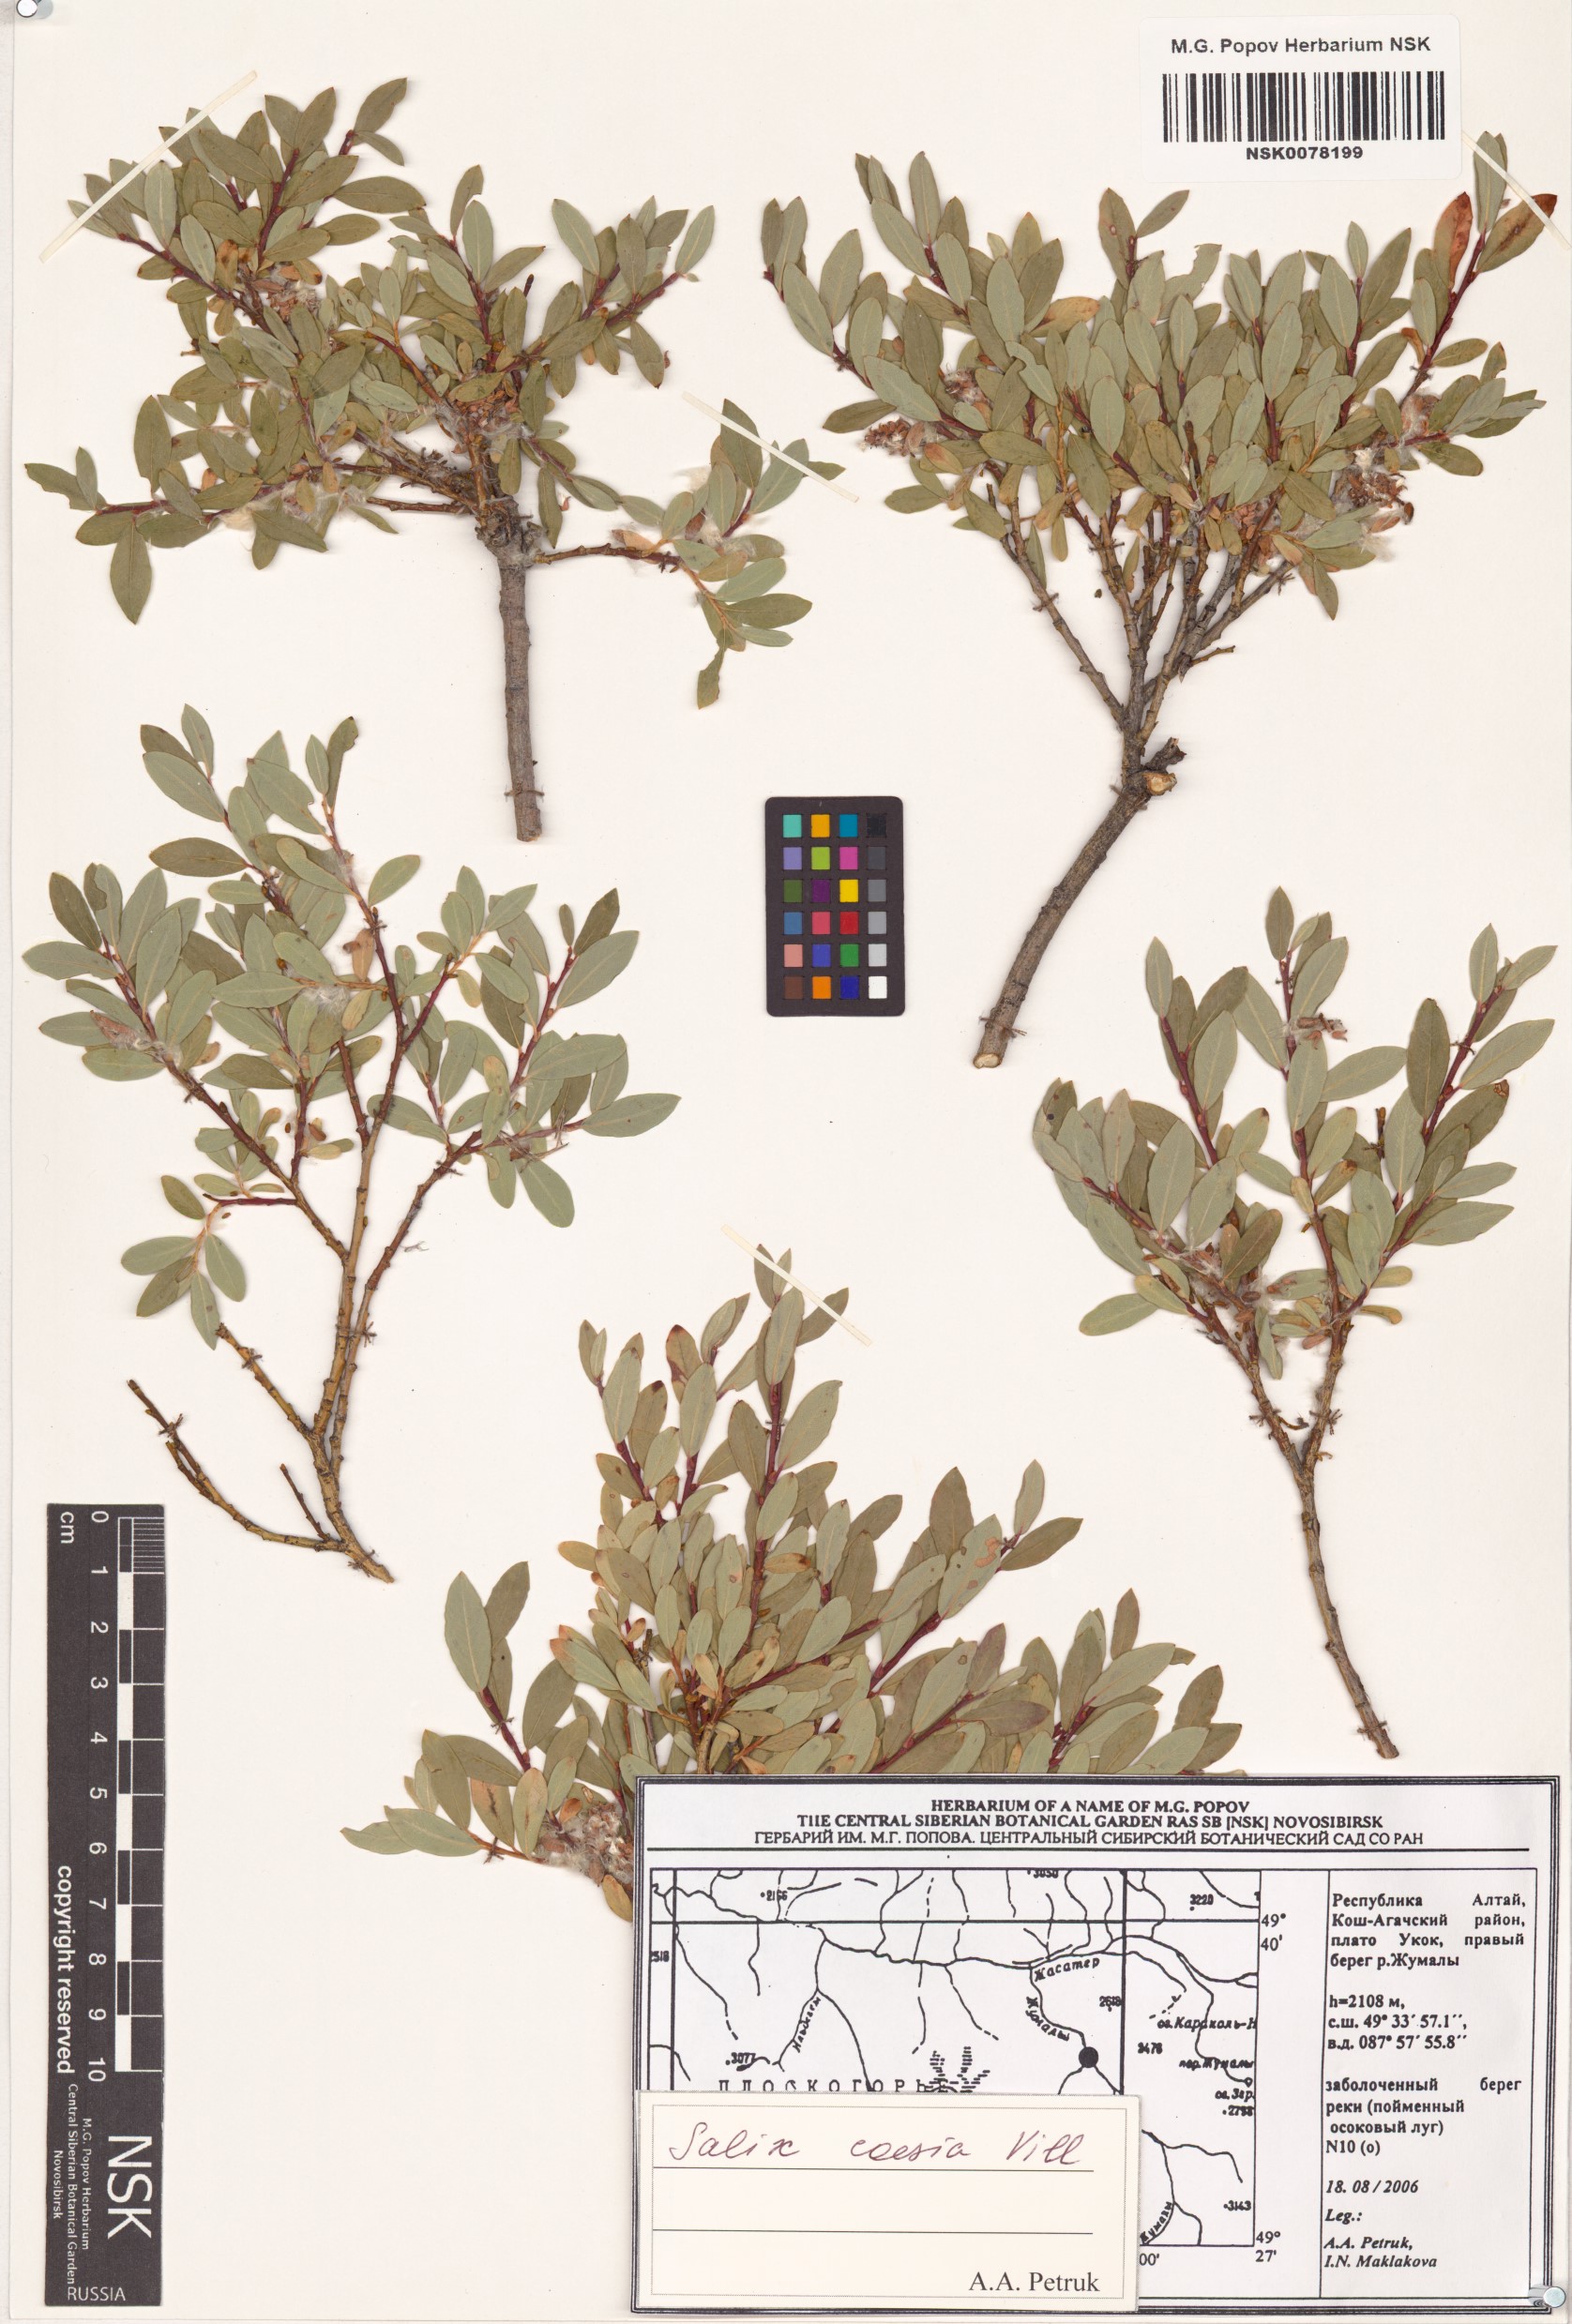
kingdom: Plantae
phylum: Tracheophyta
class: Magnoliopsida
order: Malpighiales
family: Salicaceae
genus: Salix
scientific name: Salix caesia
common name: Blue willow
